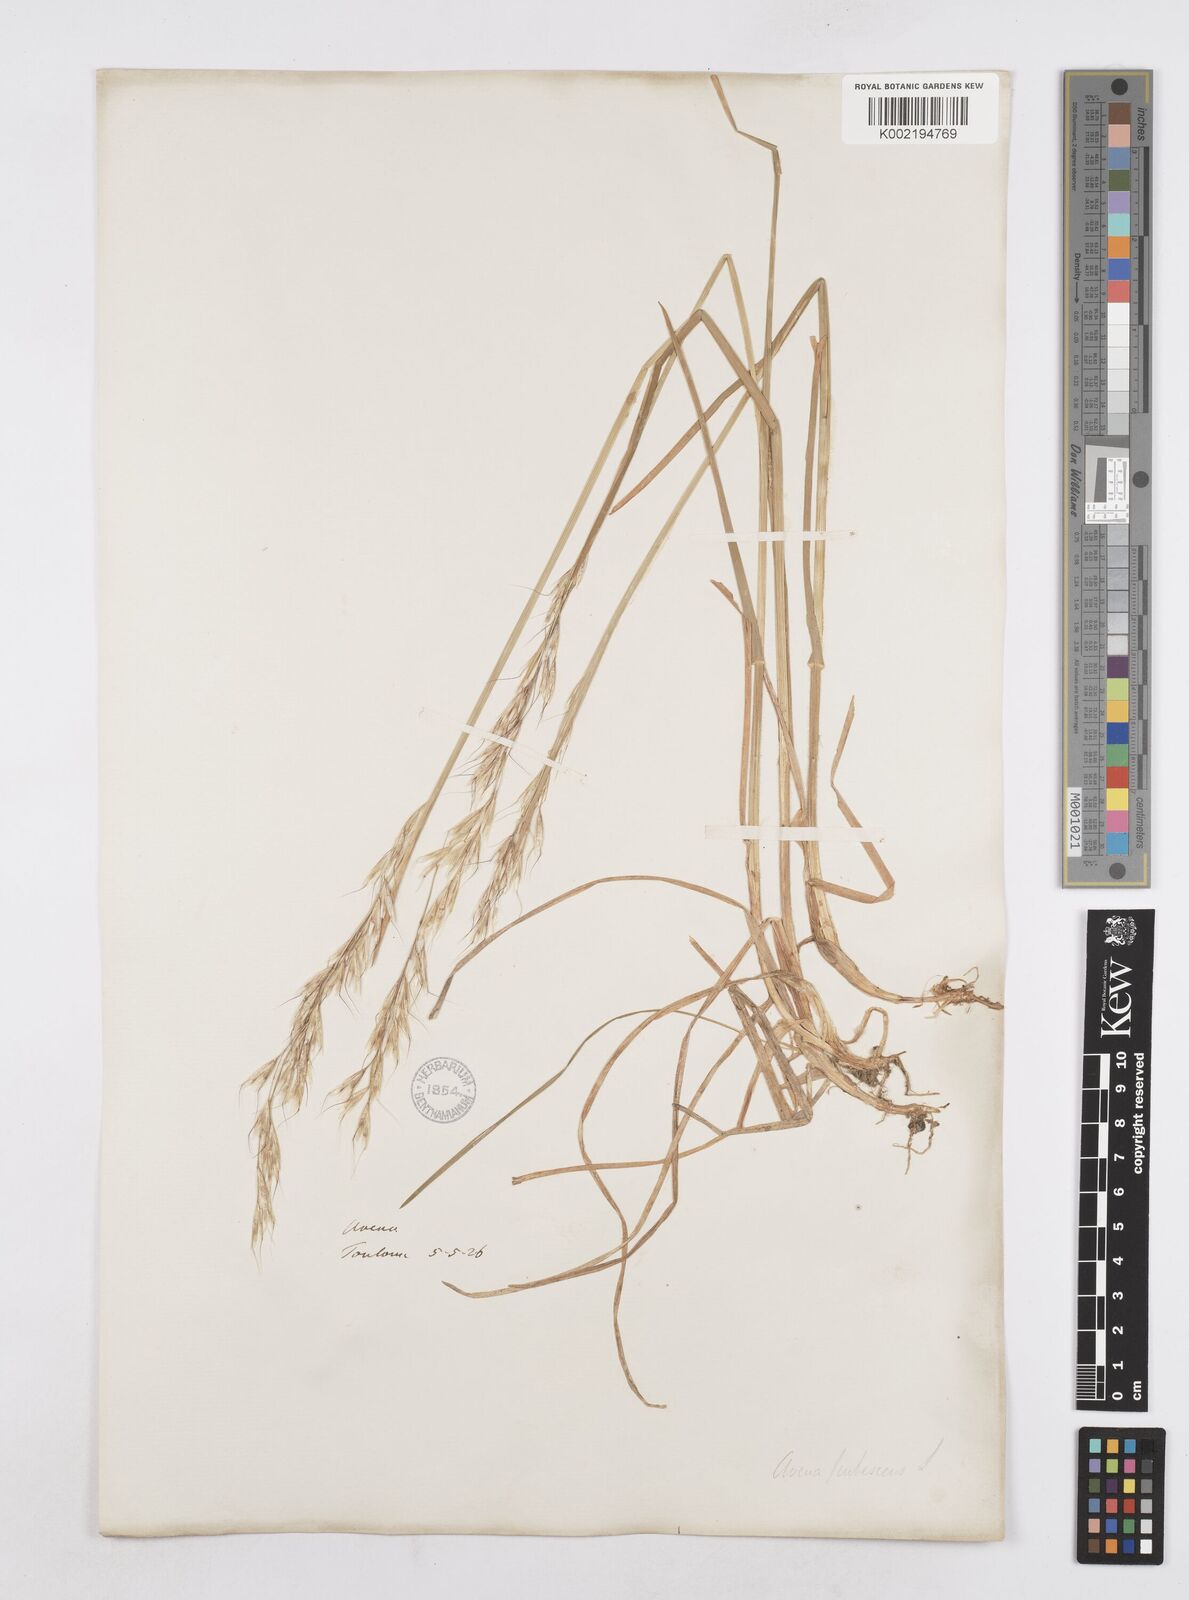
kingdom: Plantae
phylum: Tracheophyta
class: Liliopsida
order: Poales
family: Poaceae
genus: Avenula
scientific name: Avenula pubescens
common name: Downy alpine oatgrass
